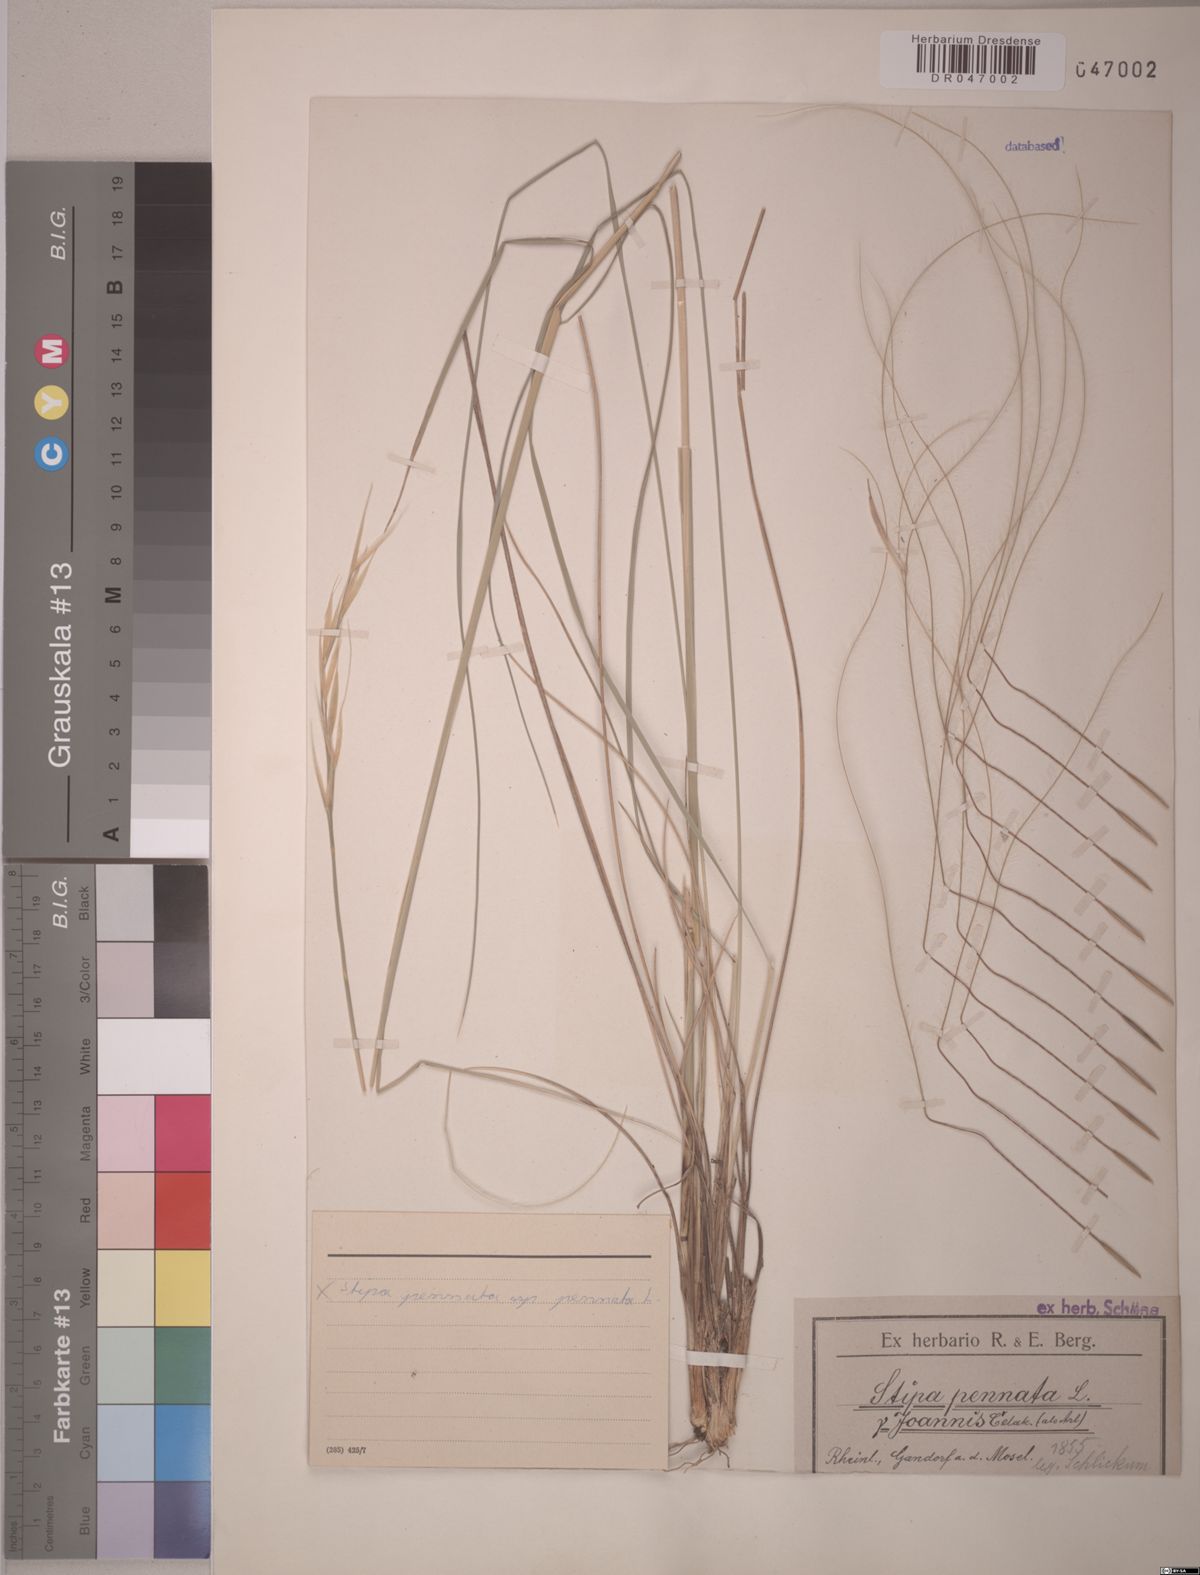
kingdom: Plantae
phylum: Tracheophyta
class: Liliopsida
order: Poales
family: Poaceae
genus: Stipa
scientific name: Stipa pennata
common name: European feather grass
